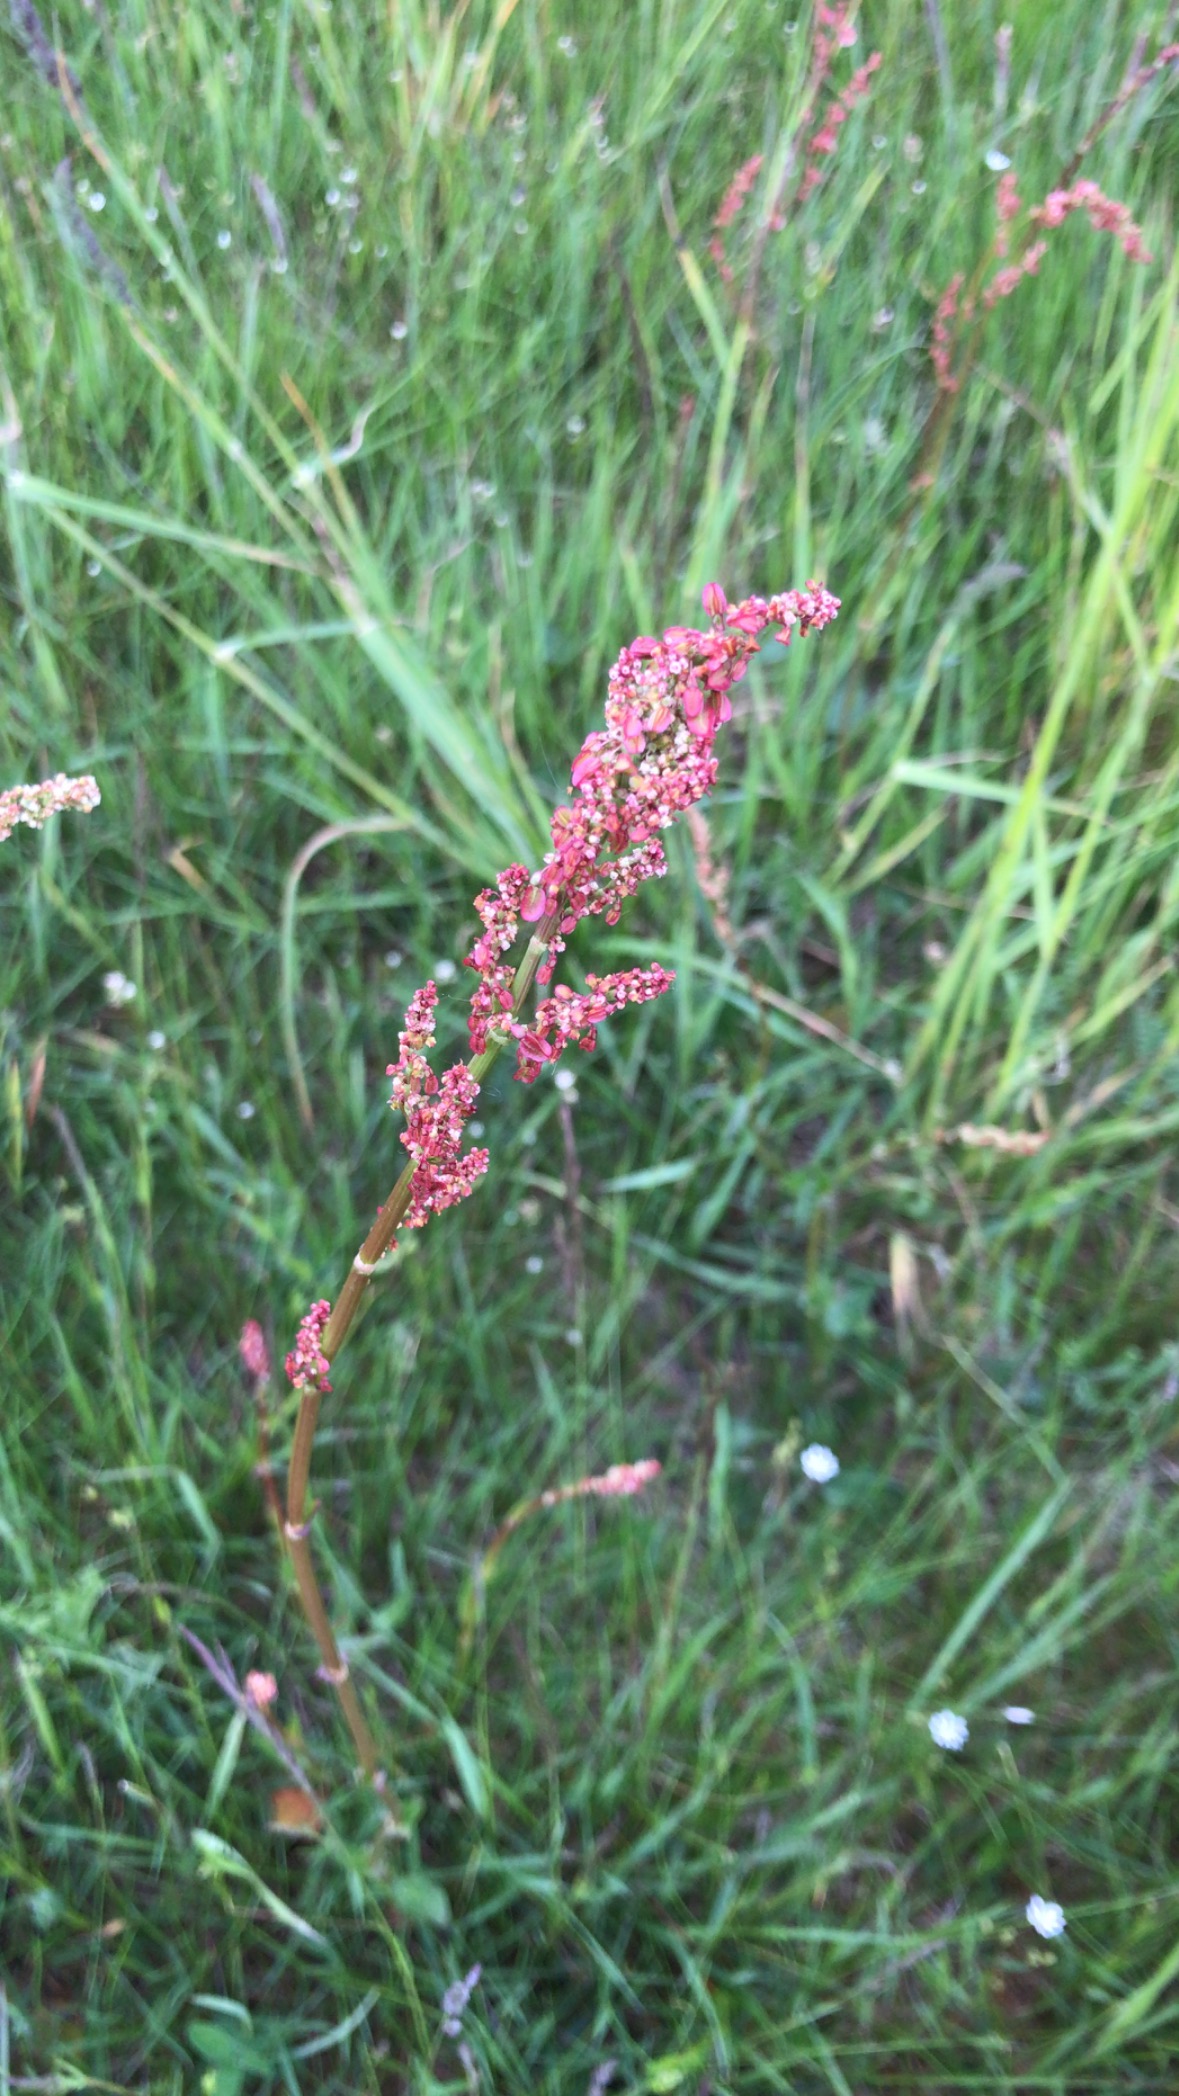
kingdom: Plantae
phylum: Tracheophyta
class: Magnoliopsida
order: Caryophyllales
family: Polygonaceae
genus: Rumex
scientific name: Rumex acetosa
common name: Almindelig syre
